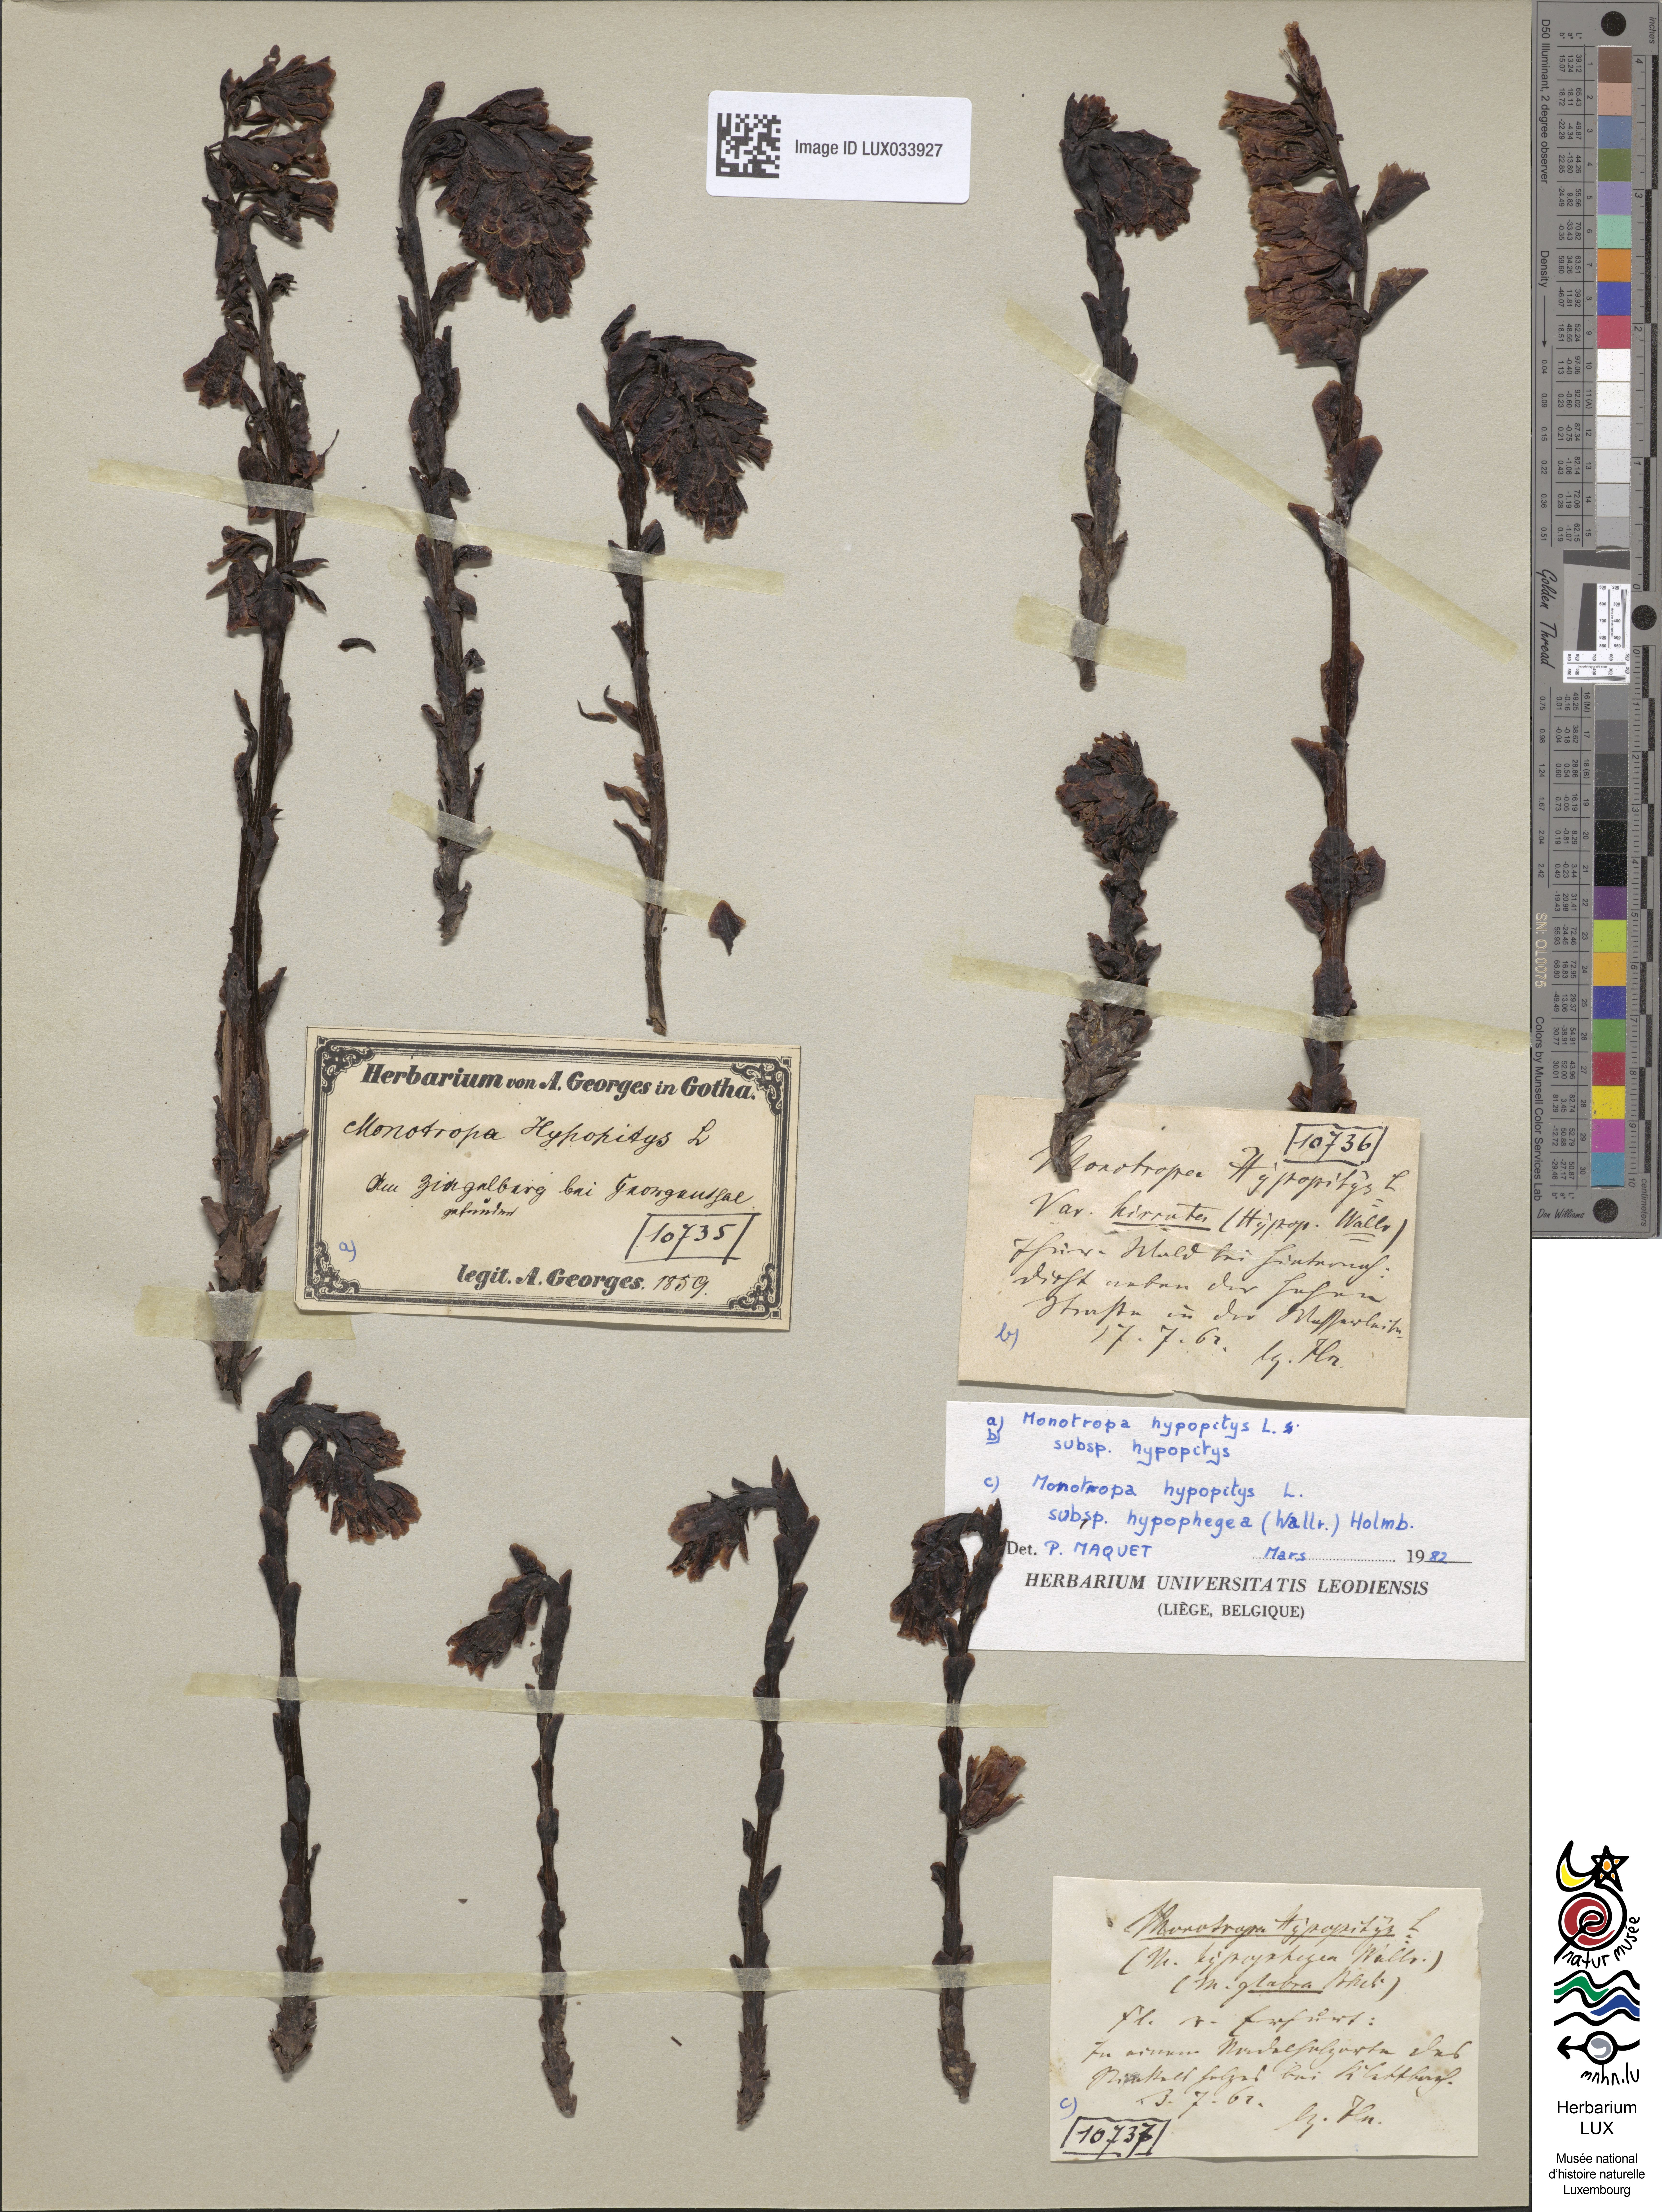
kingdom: Plantae
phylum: Tracheophyta
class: Magnoliopsida
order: Ericales
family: Ericaceae
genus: Hypopitys
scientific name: Hypopitys monotropa
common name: Yellow bird's-nest
